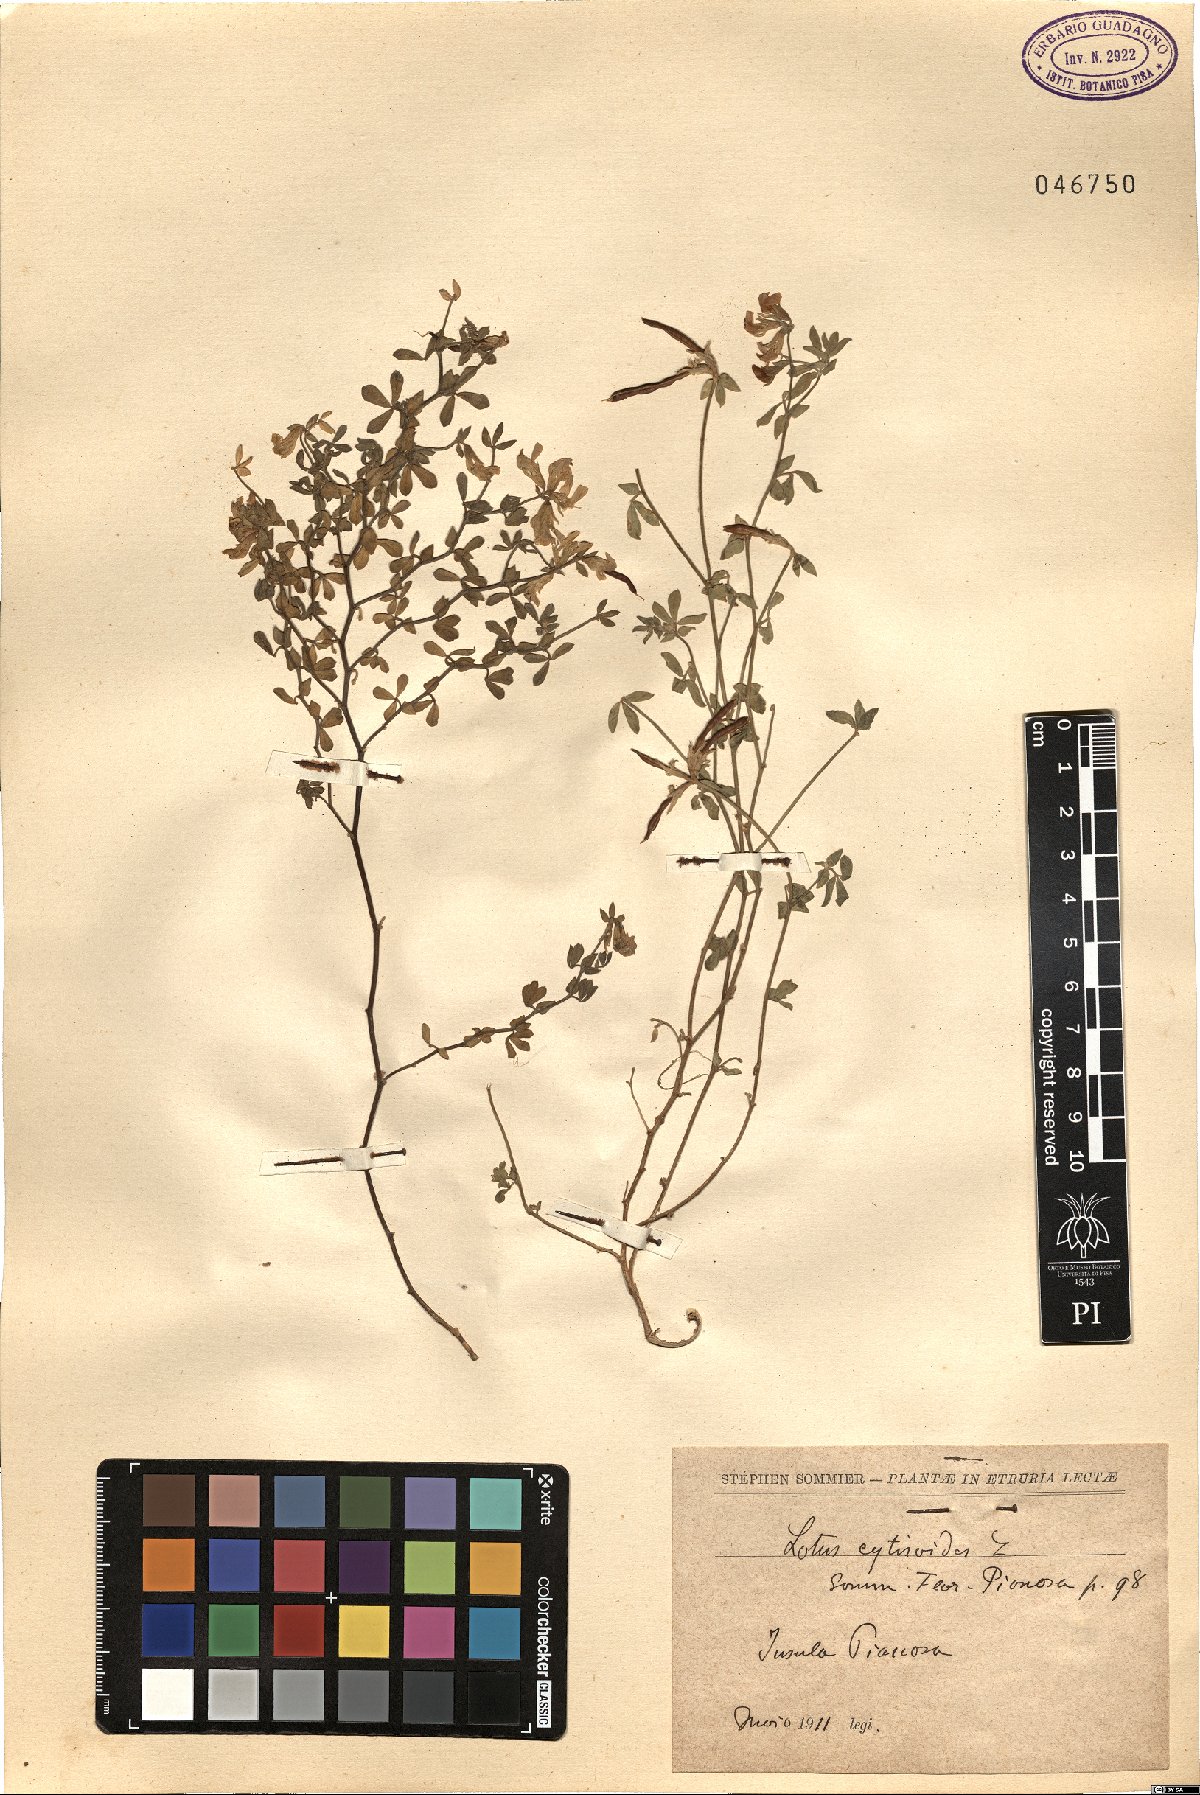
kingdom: Plantae
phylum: Tracheophyta
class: Magnoliopsida
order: Fabales
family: Fabaceae
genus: Lotus
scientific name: Lotus cytisoides
